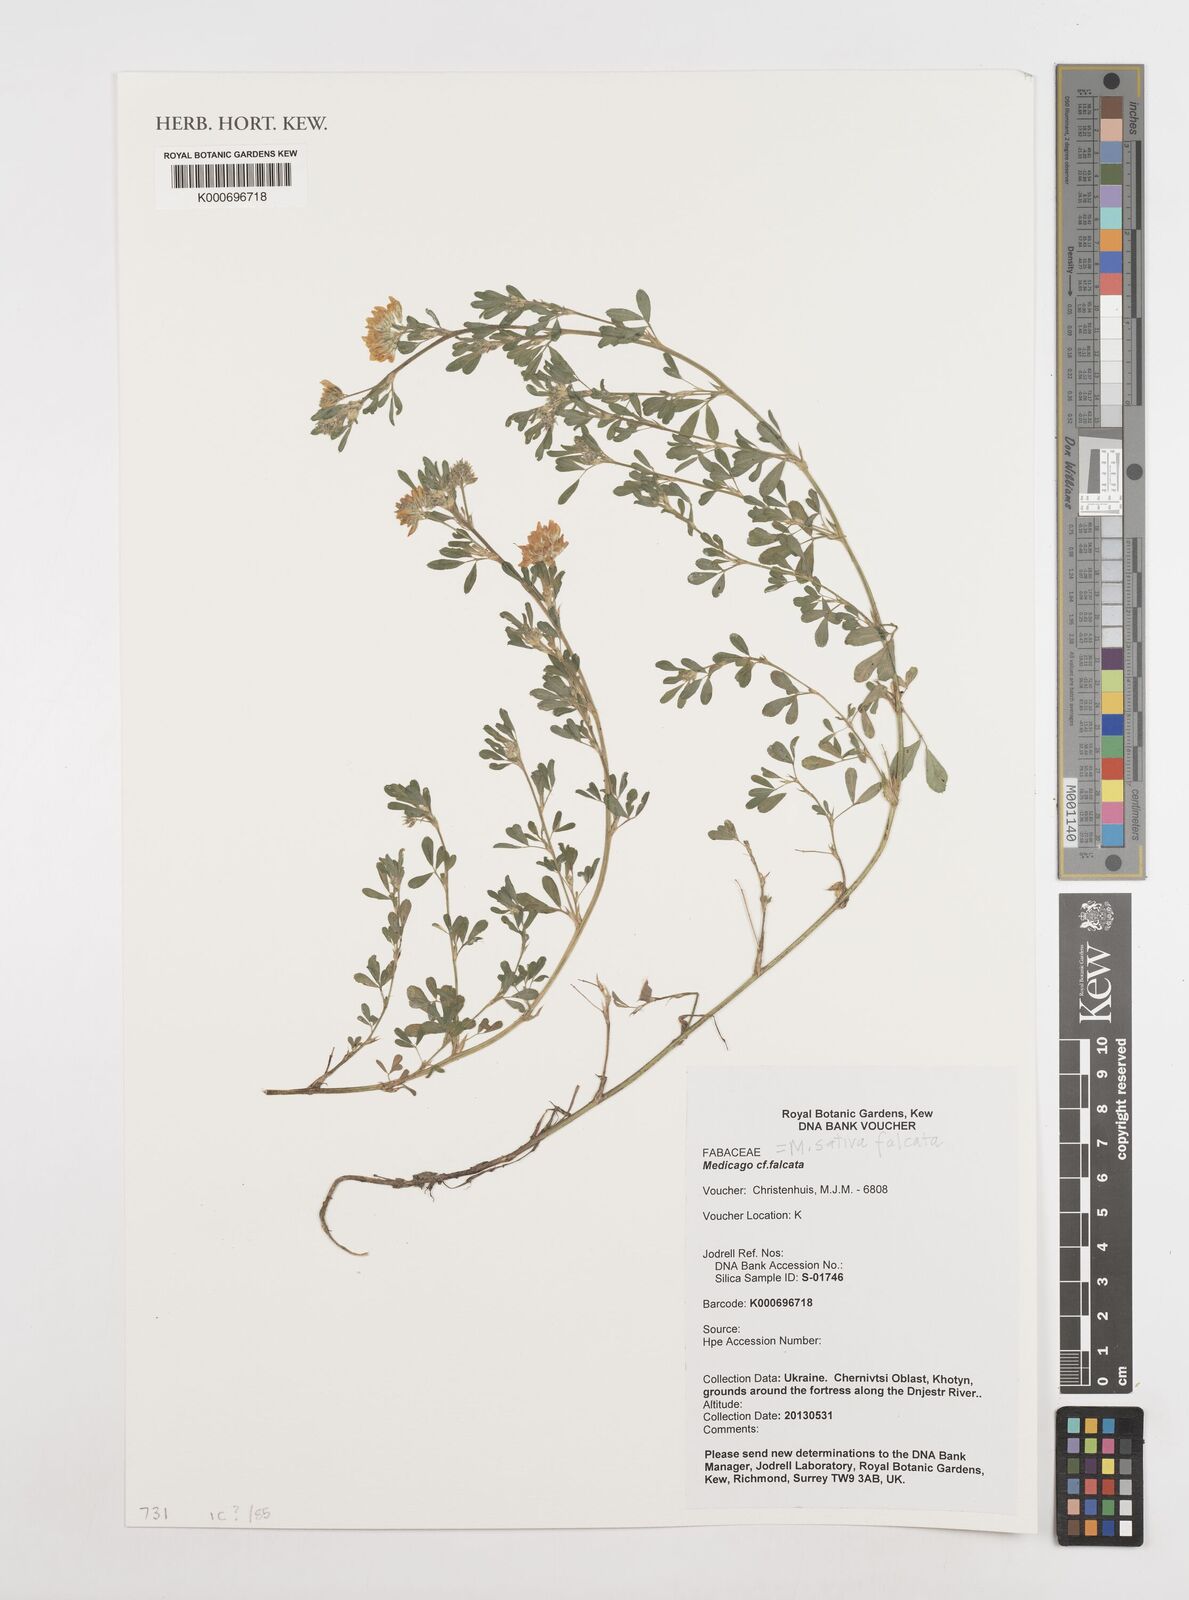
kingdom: Plantae
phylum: Tracheophyta
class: Magnoliopsida
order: Fabales
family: Fabaceae
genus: Medicago
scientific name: Medicago falcata
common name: Sickle medick
